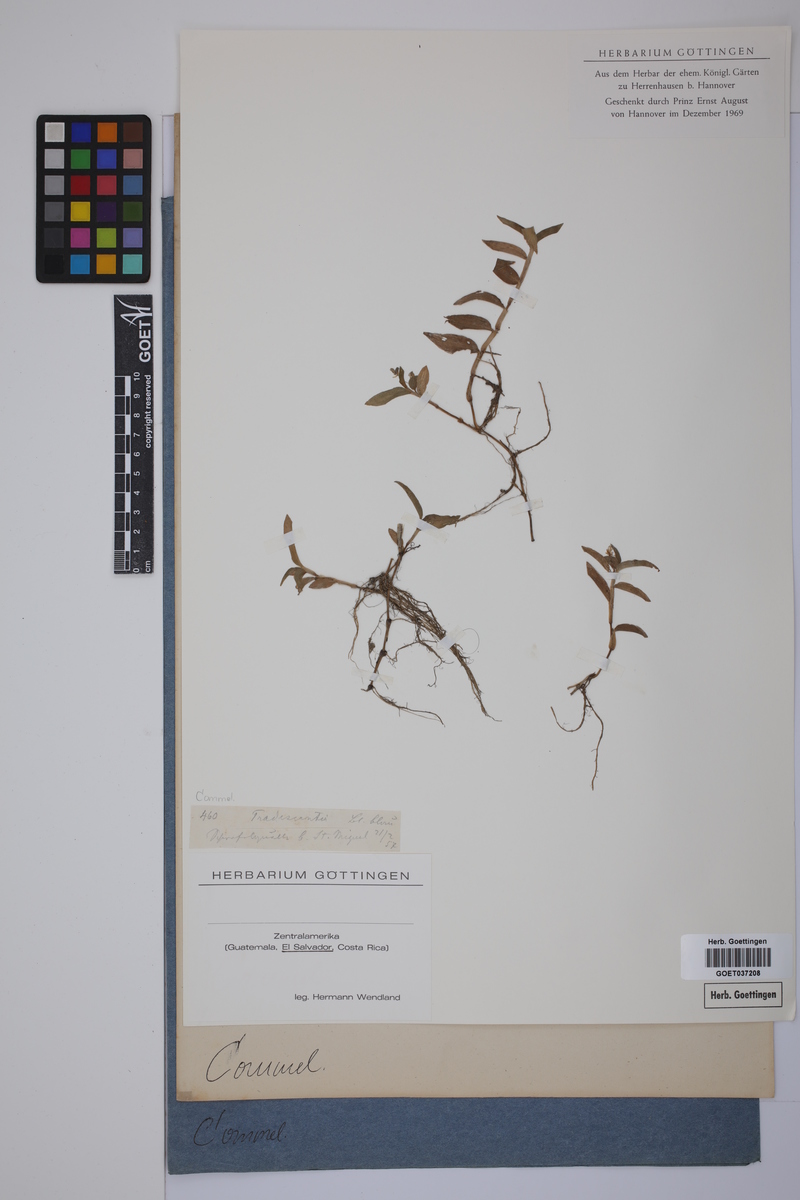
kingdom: Plantae
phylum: Tracheophyta
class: Liliopsida
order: Commelinales
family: Commelinaceae
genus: Tradescantia
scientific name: Tradescantia
